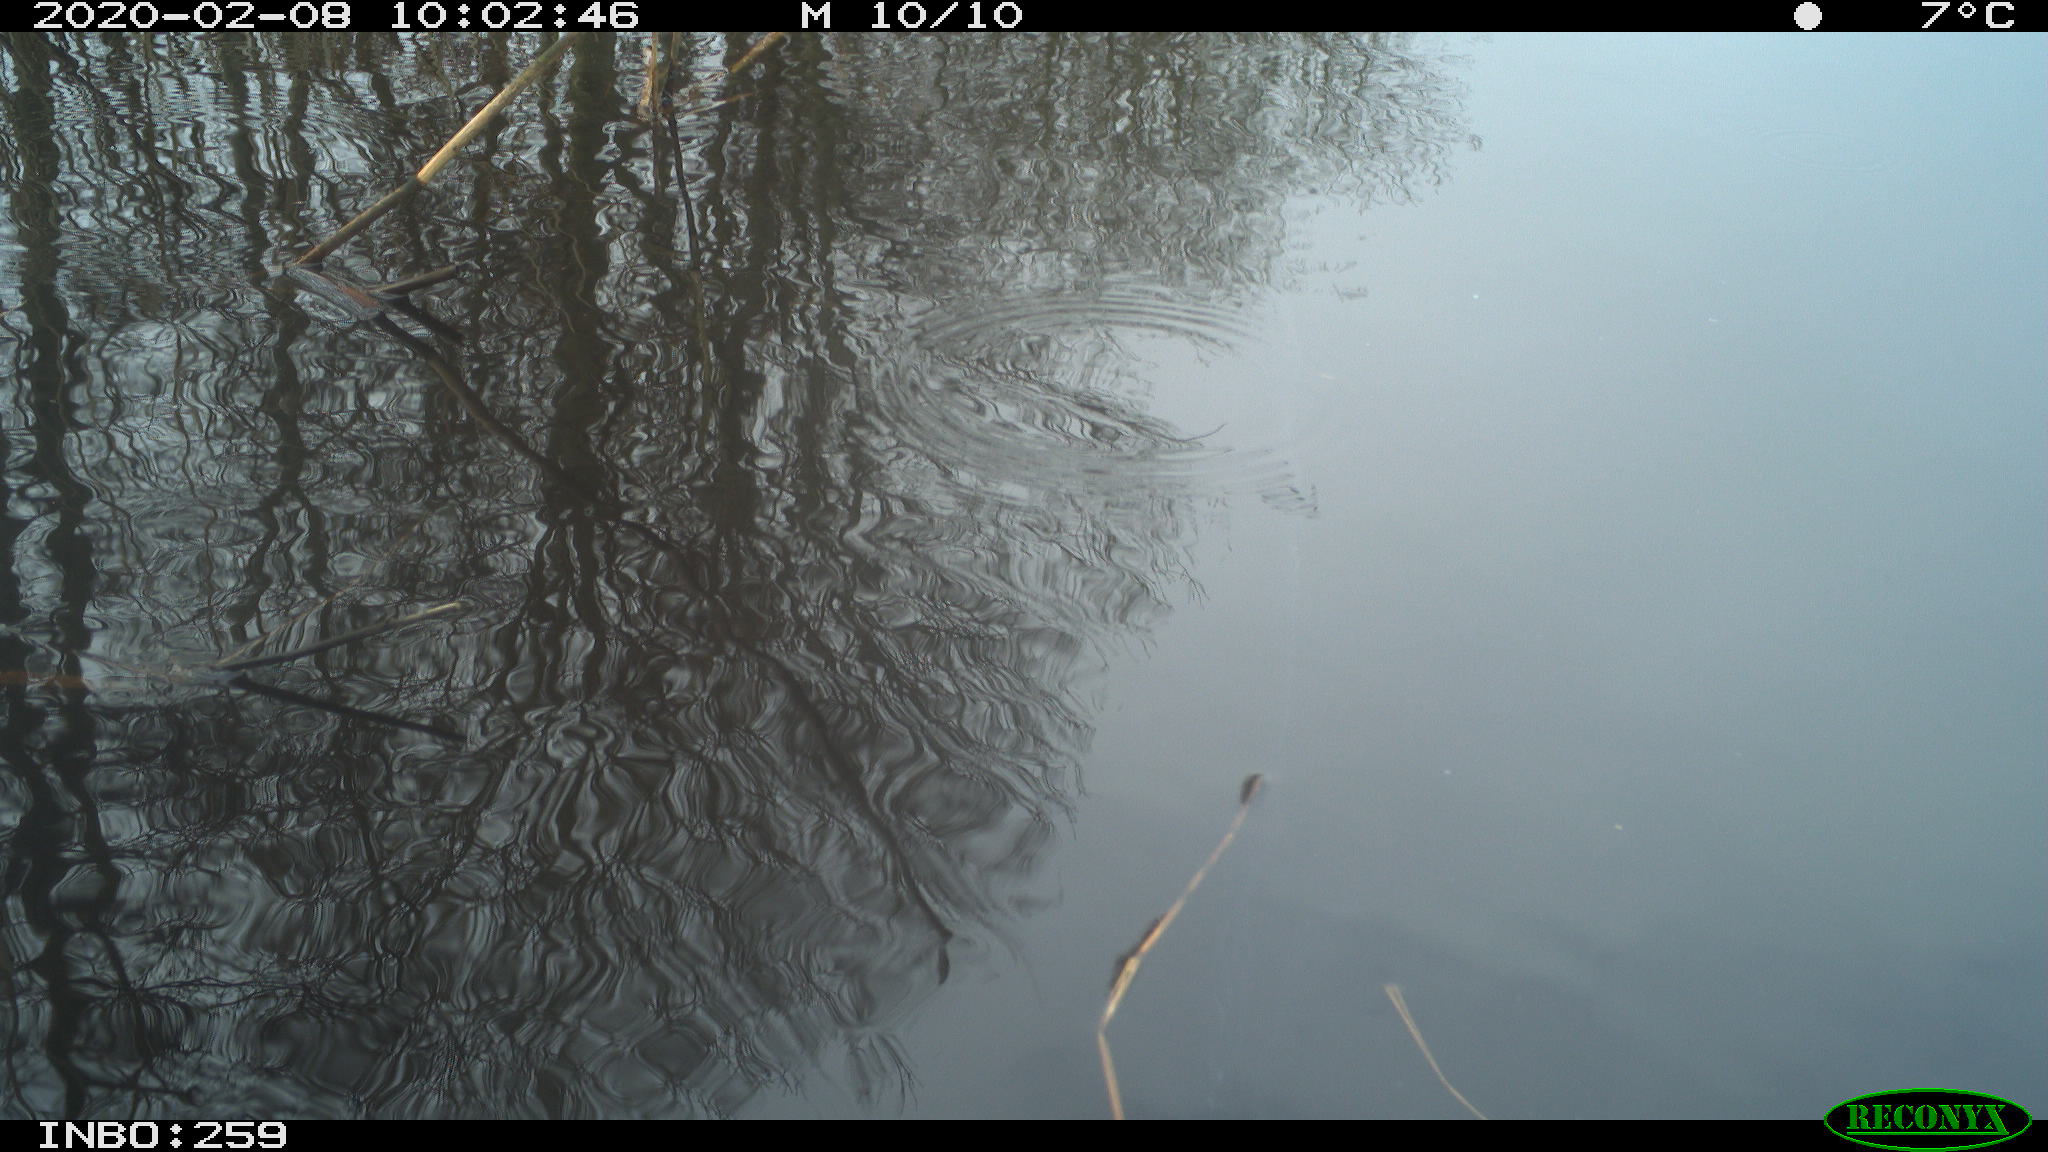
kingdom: Animalia
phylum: Chordata
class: Aves
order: Gruiformes
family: Rallidae
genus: Gallinula
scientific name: Gallinula chloropus
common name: Common moorhen
